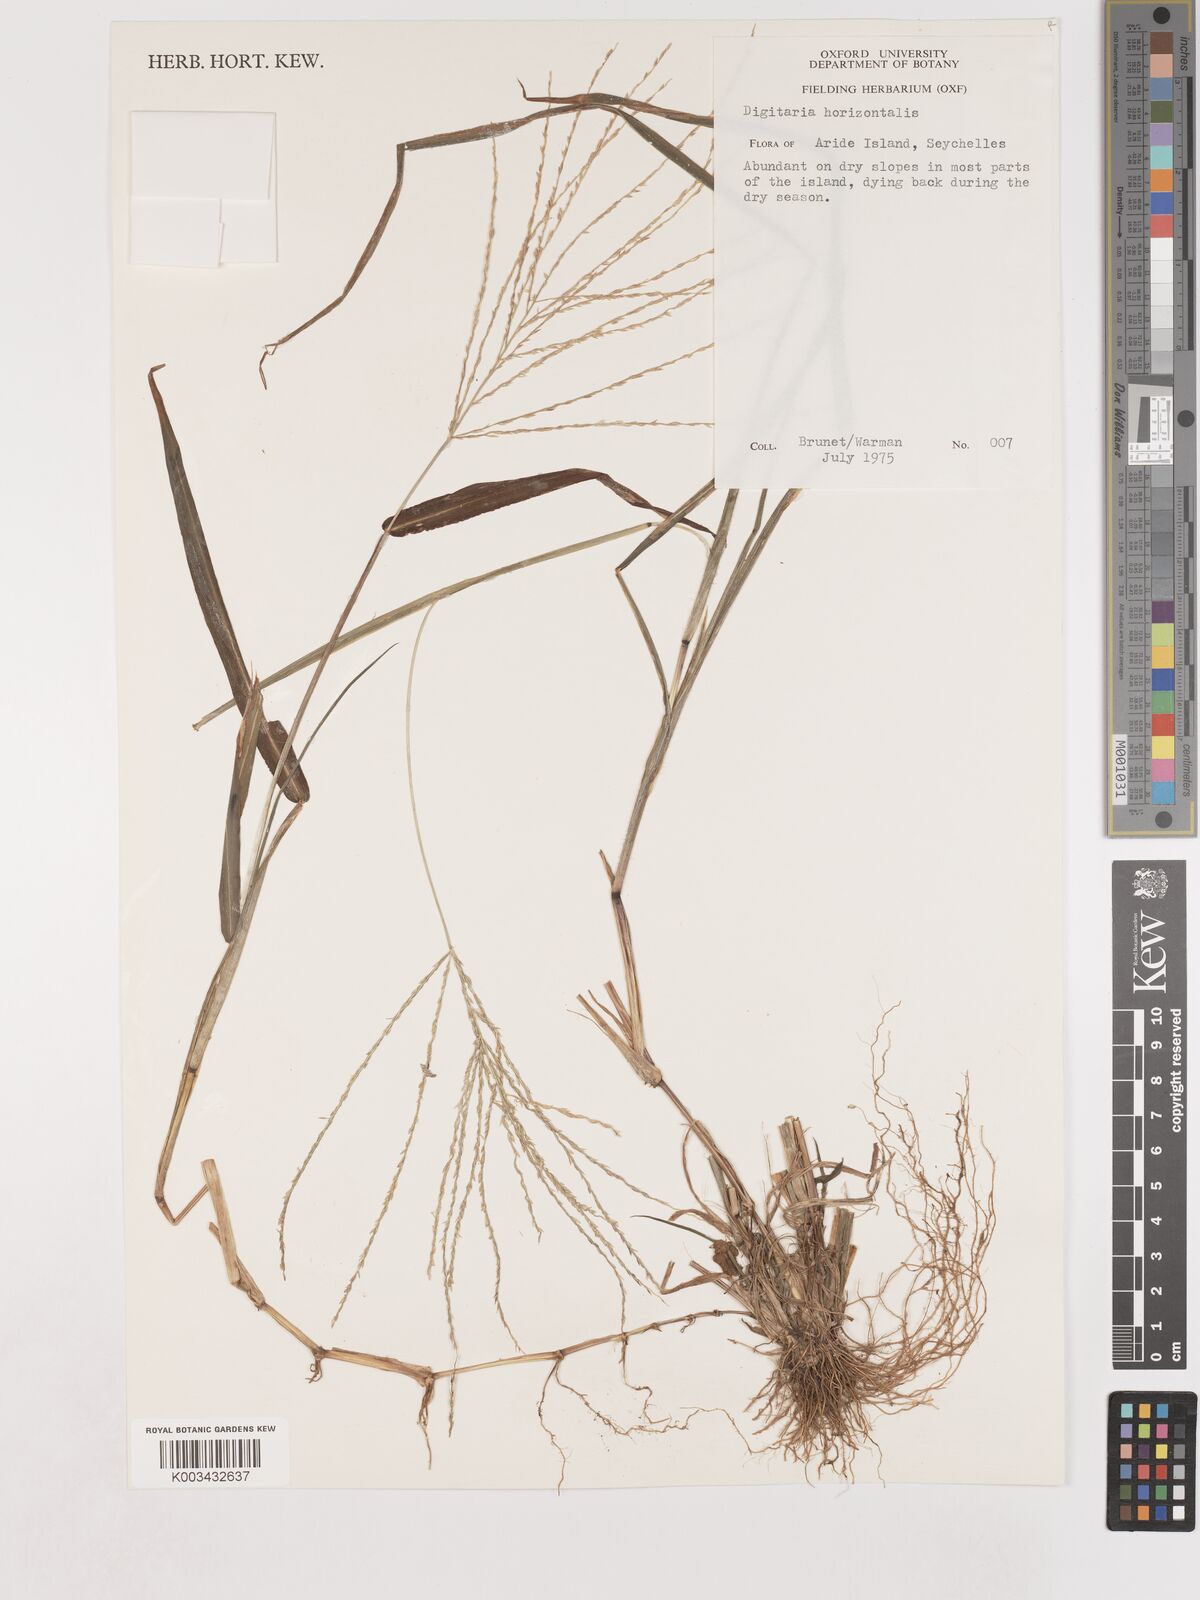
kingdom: Plantae
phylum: Tracheophyta
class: Liliopsida
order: Poales
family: Poaceae
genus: Digitaria
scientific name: Digitaria horizontalis
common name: Jamaican crabgrass
